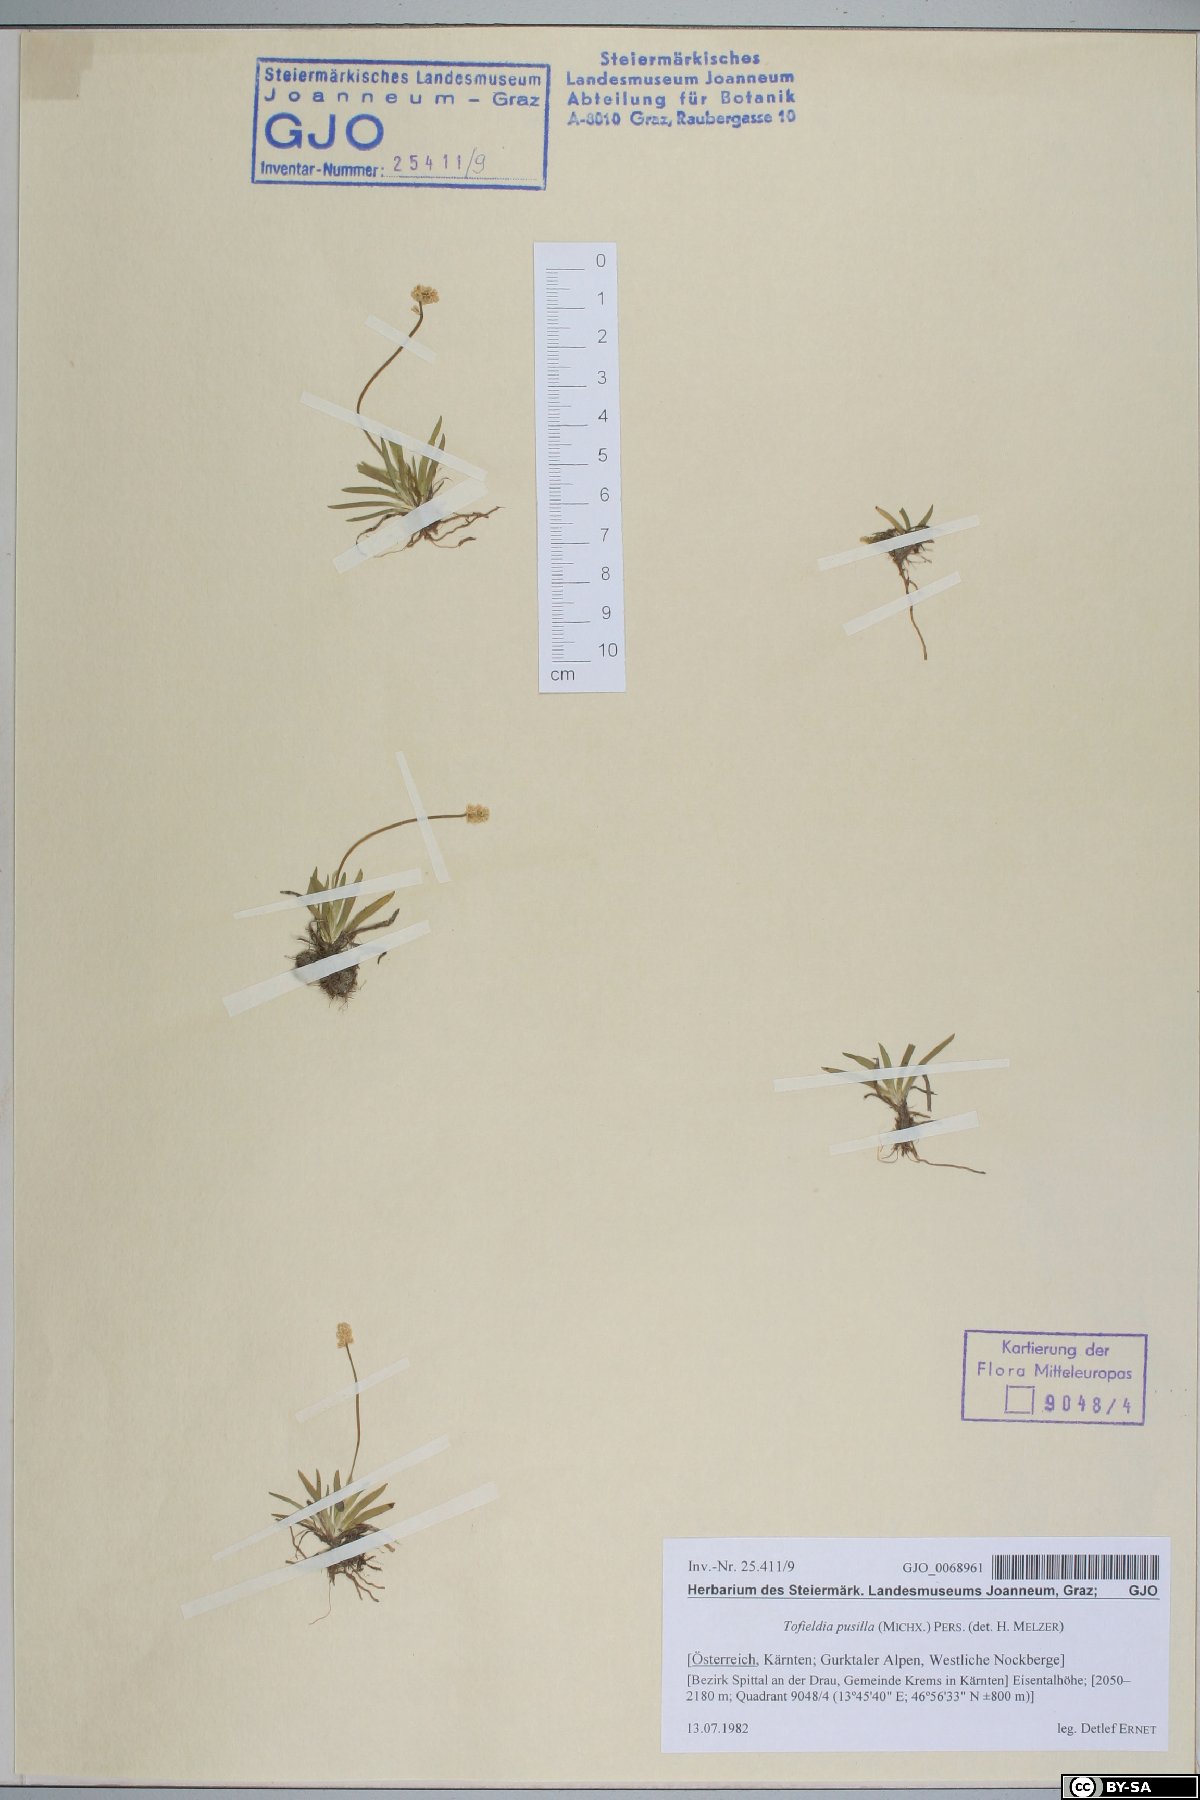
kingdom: Plantae
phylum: Tracheophyta
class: Liliopsida
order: Alismatales
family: Tofieldiaceae
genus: Tofieldia
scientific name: Tofieldia pusilla
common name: Scottish false asphodel
